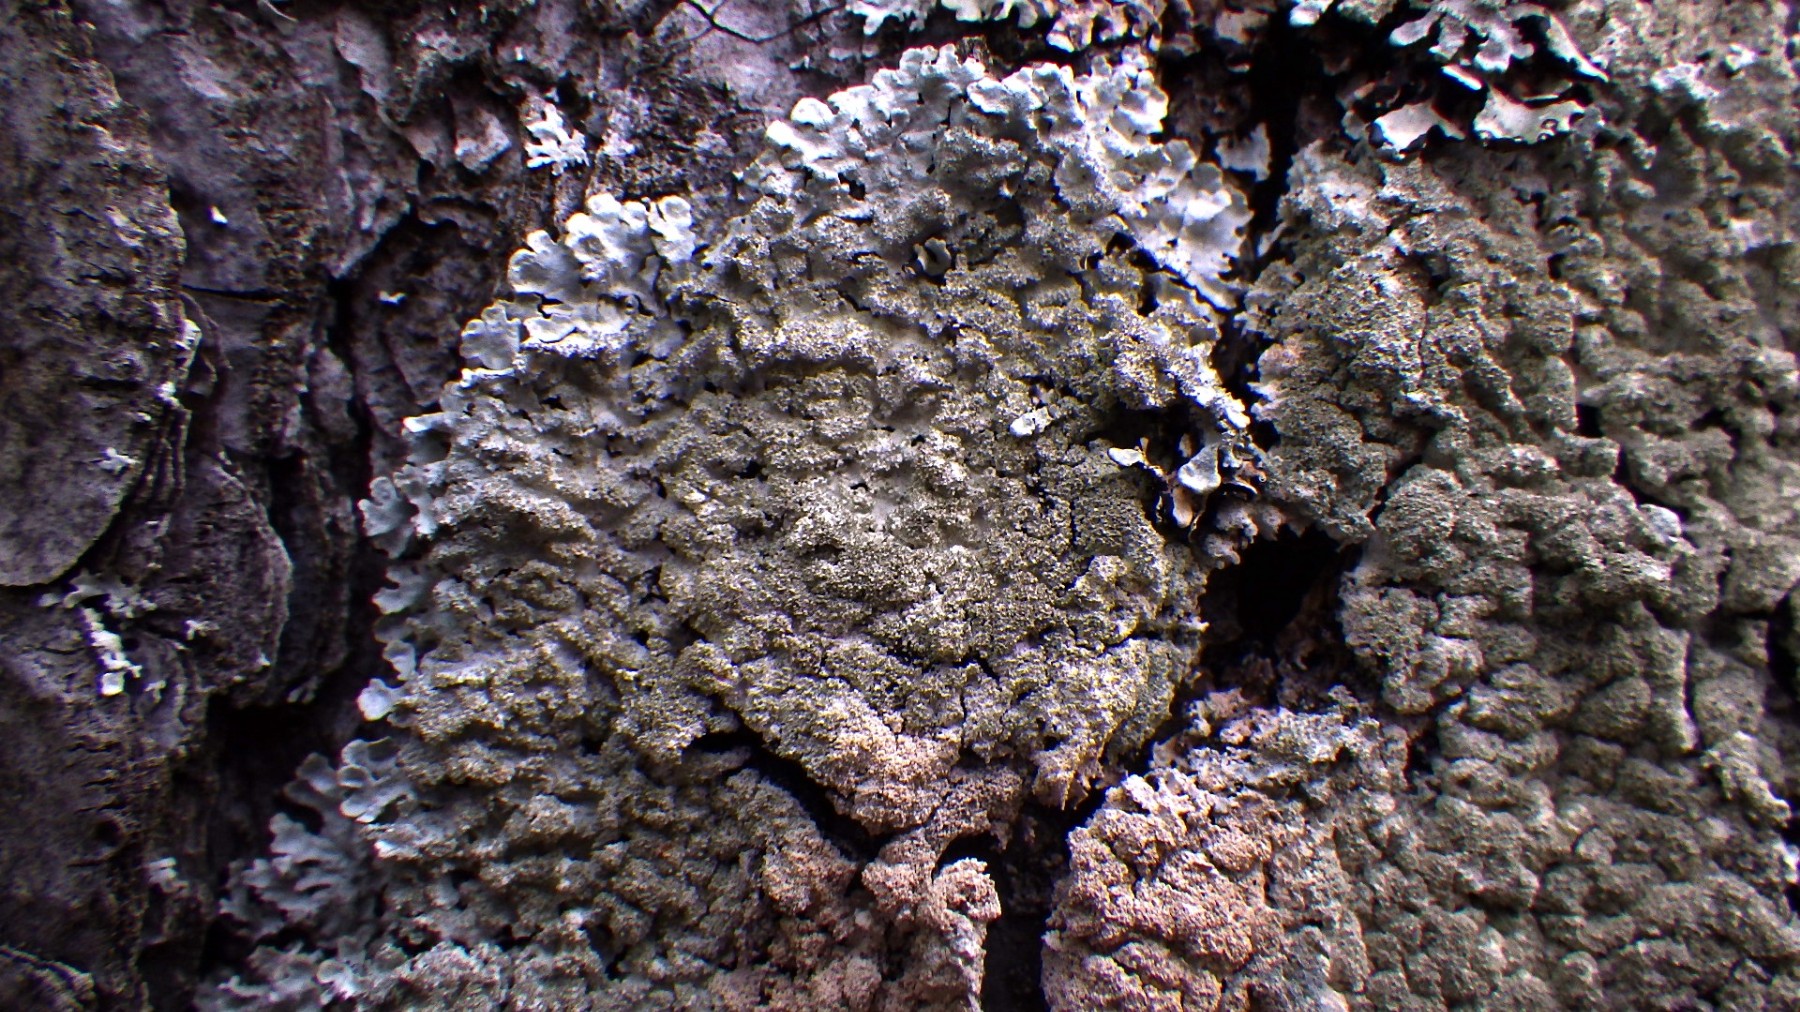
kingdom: Fungi
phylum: Ascomycota
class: Lecanoromycetes
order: Lecanorales
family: Parmeliaceae
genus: Imshaugia
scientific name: Imshaugia aleurites
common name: kliddet stolpelav
